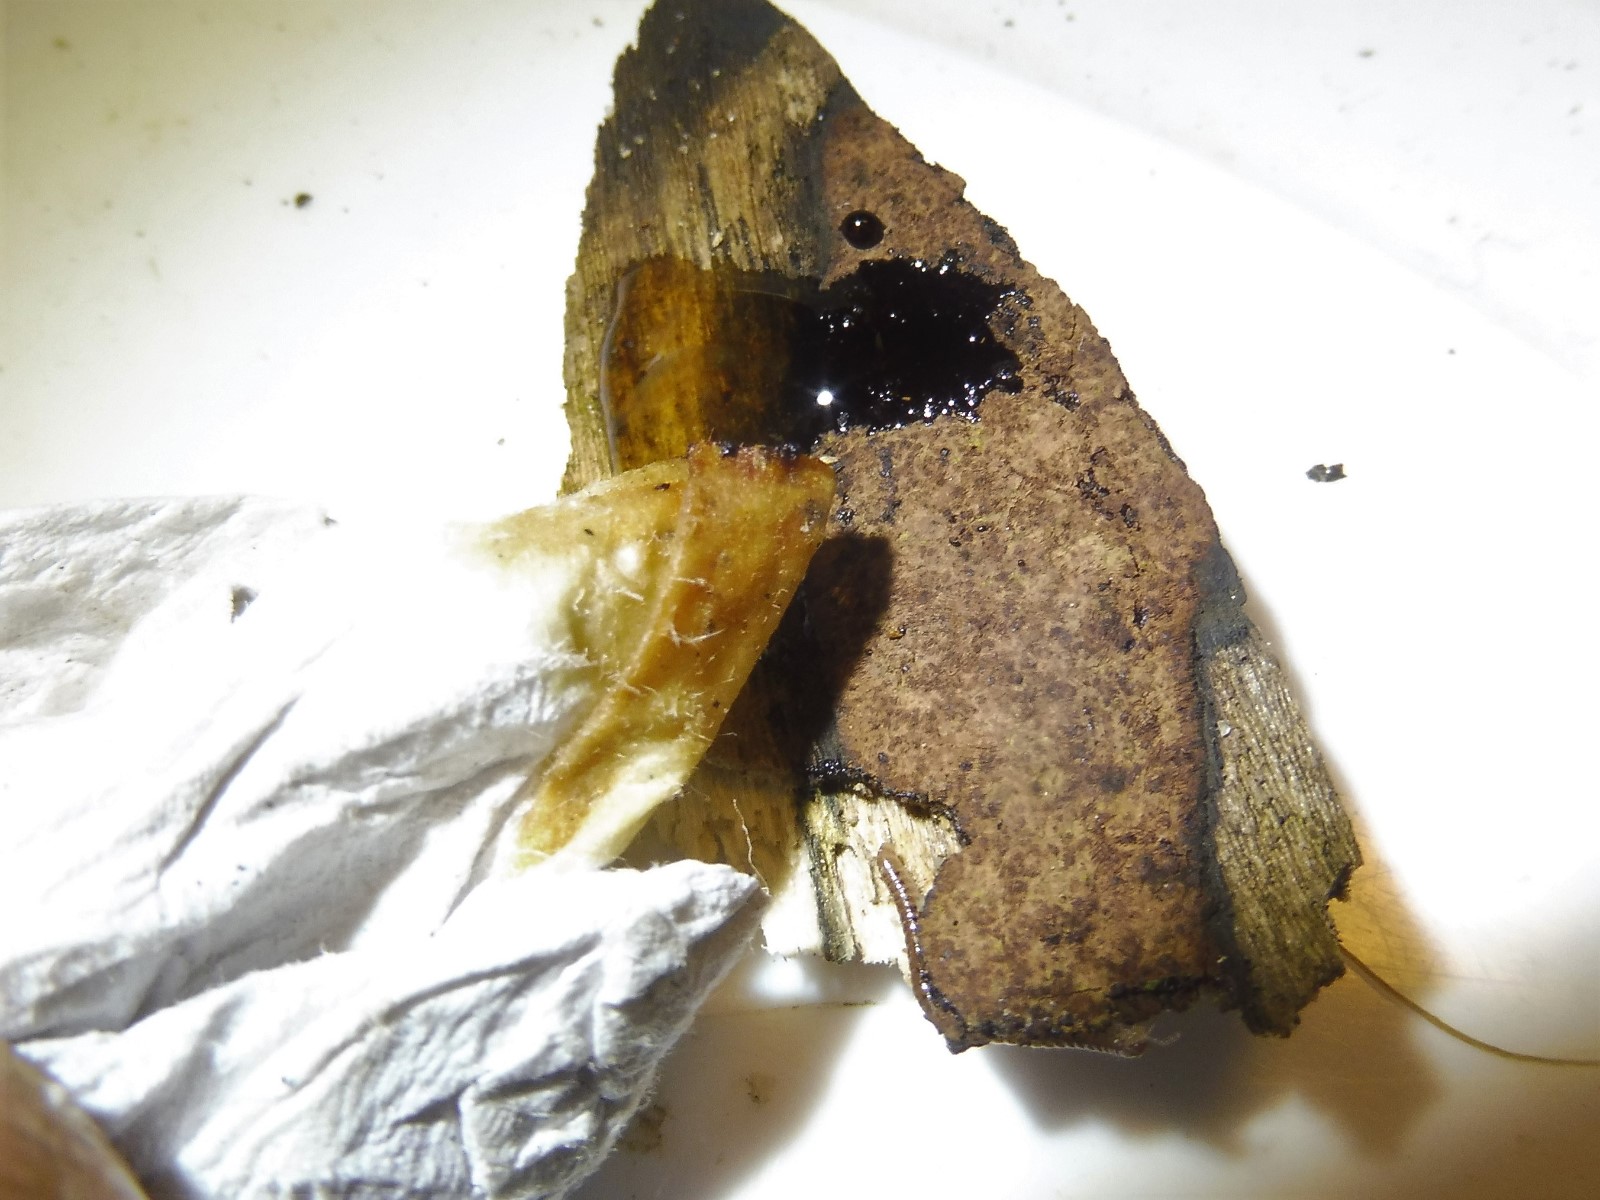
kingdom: Fungi
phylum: Ascomycota
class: Sordariomycetes
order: Xylariales
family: Hypoxylaceae
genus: Hypoxylon
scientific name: Hypoxylon petriniae
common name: nedsænket kulbær
